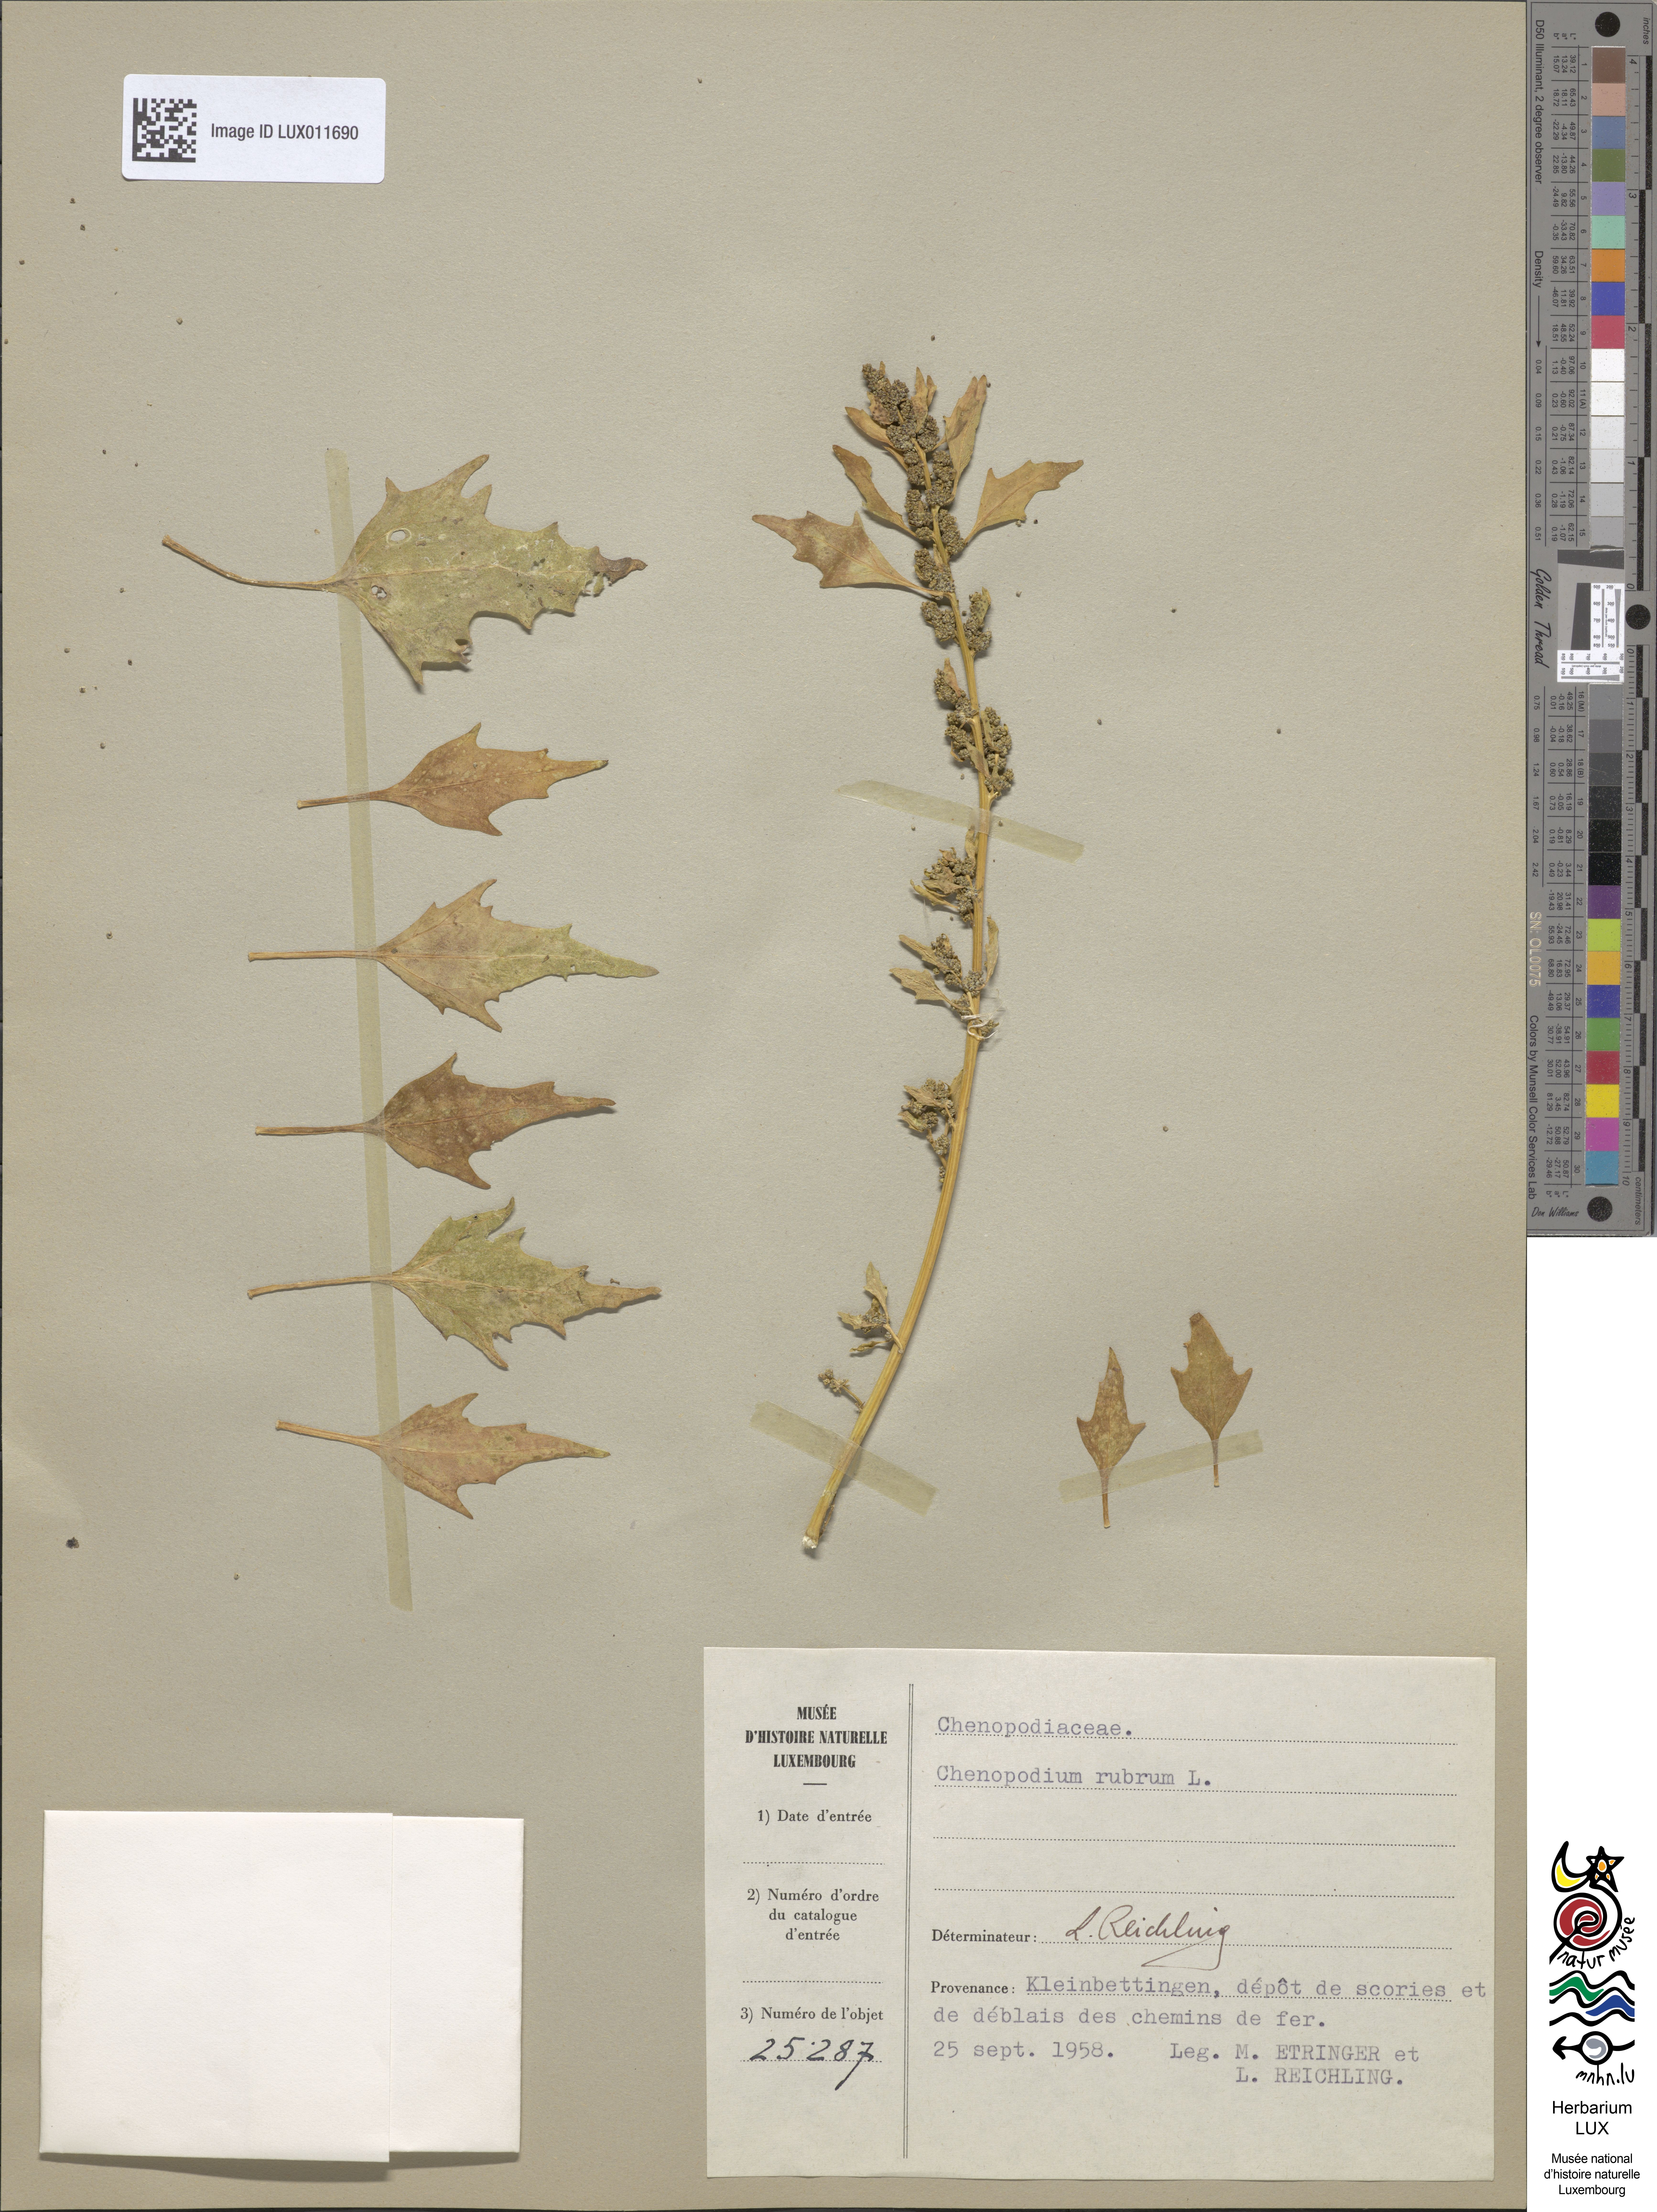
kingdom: Plantae
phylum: Tracheophyta
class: Magnoliopsida
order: Caryophyllales
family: Amaranthaceae
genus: Oxybasis
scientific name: Oxybasis rubra
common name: Red goosefoot
